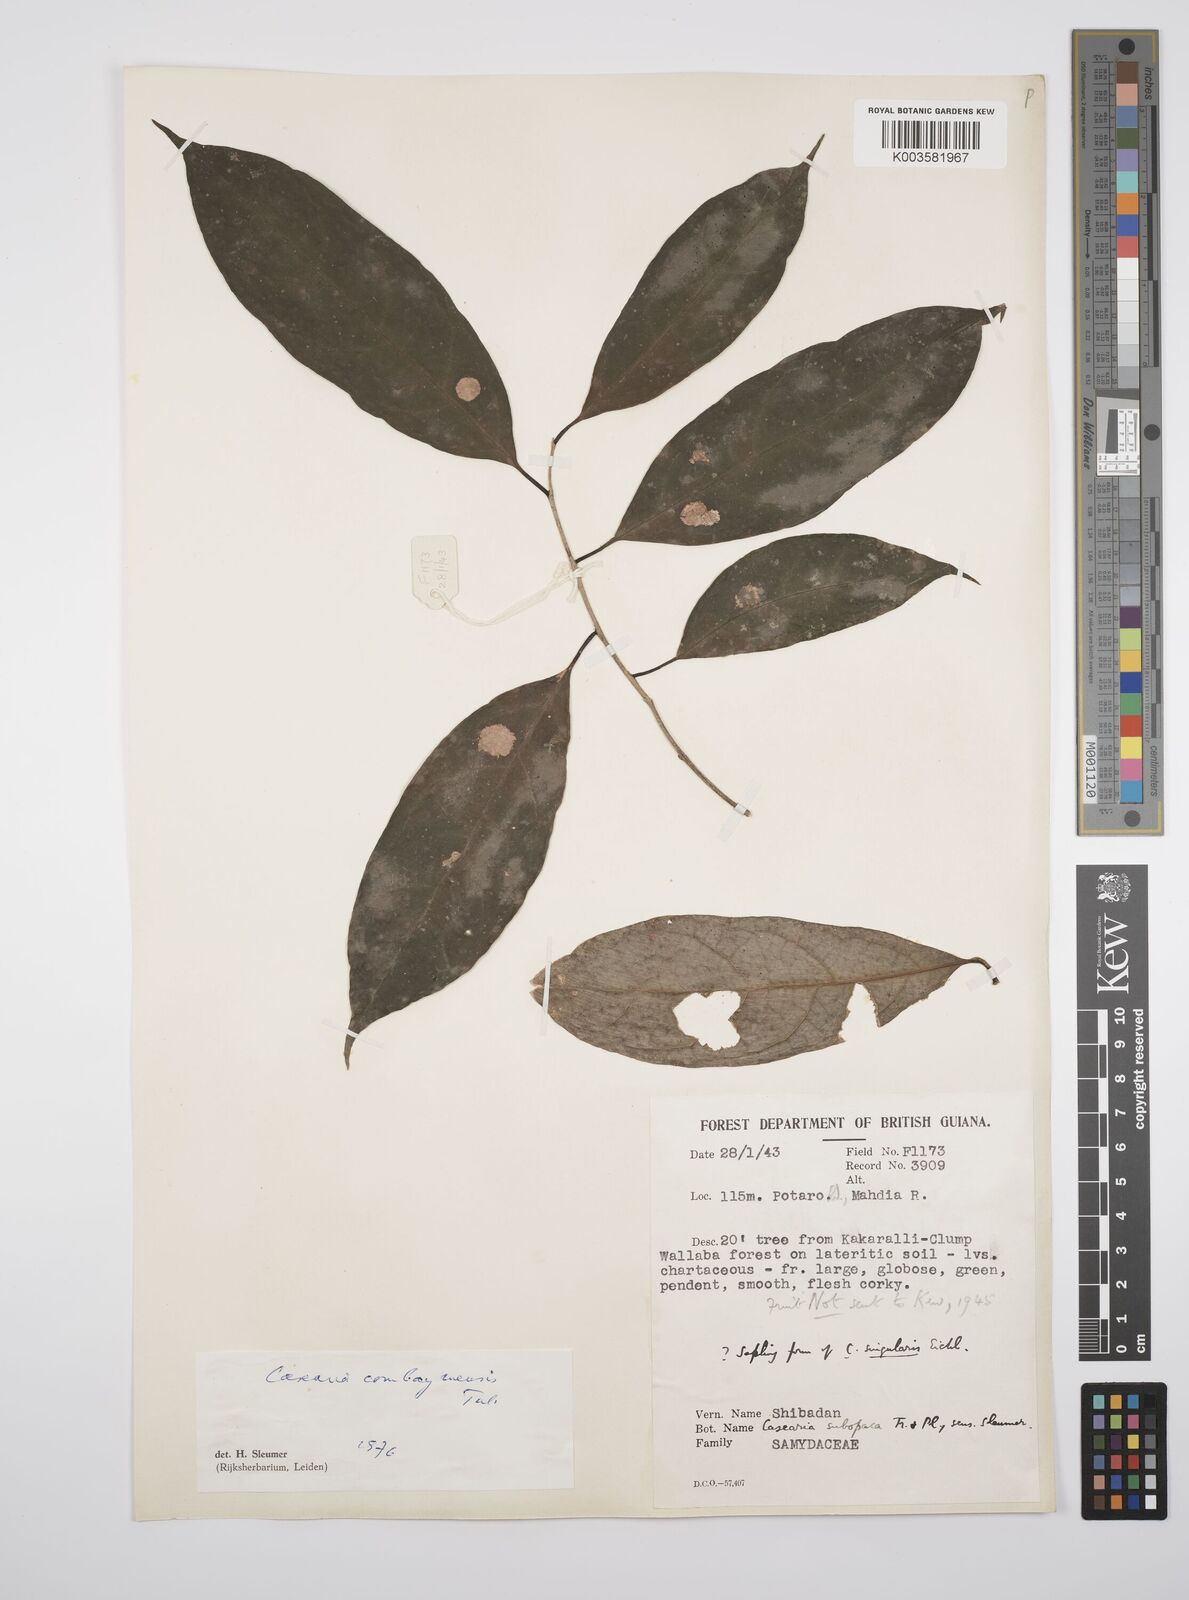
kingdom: Plantae
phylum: Tracheophyta
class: Magnoliopsida
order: Malpighiales
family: Salicaceae
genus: Casearia
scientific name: Casearia combaymensis
